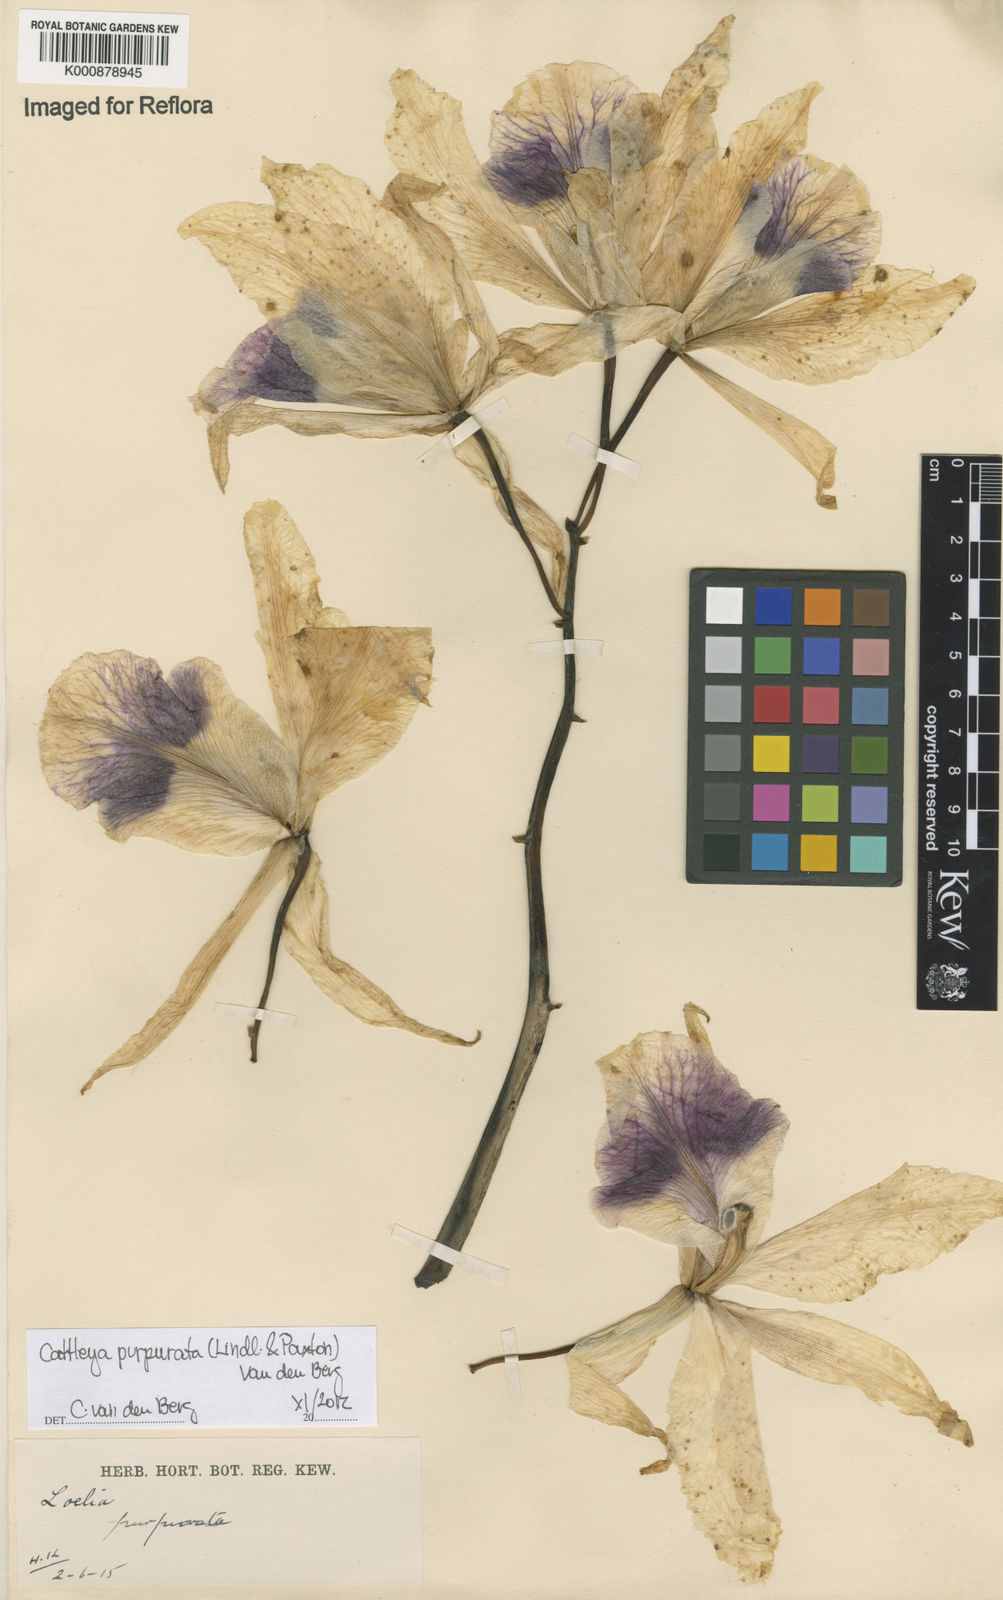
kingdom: Plantae
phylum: Tracheophyta
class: Liliopsida
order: Asparagales
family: Orchidaceae
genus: Cattleya
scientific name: Cattleya
